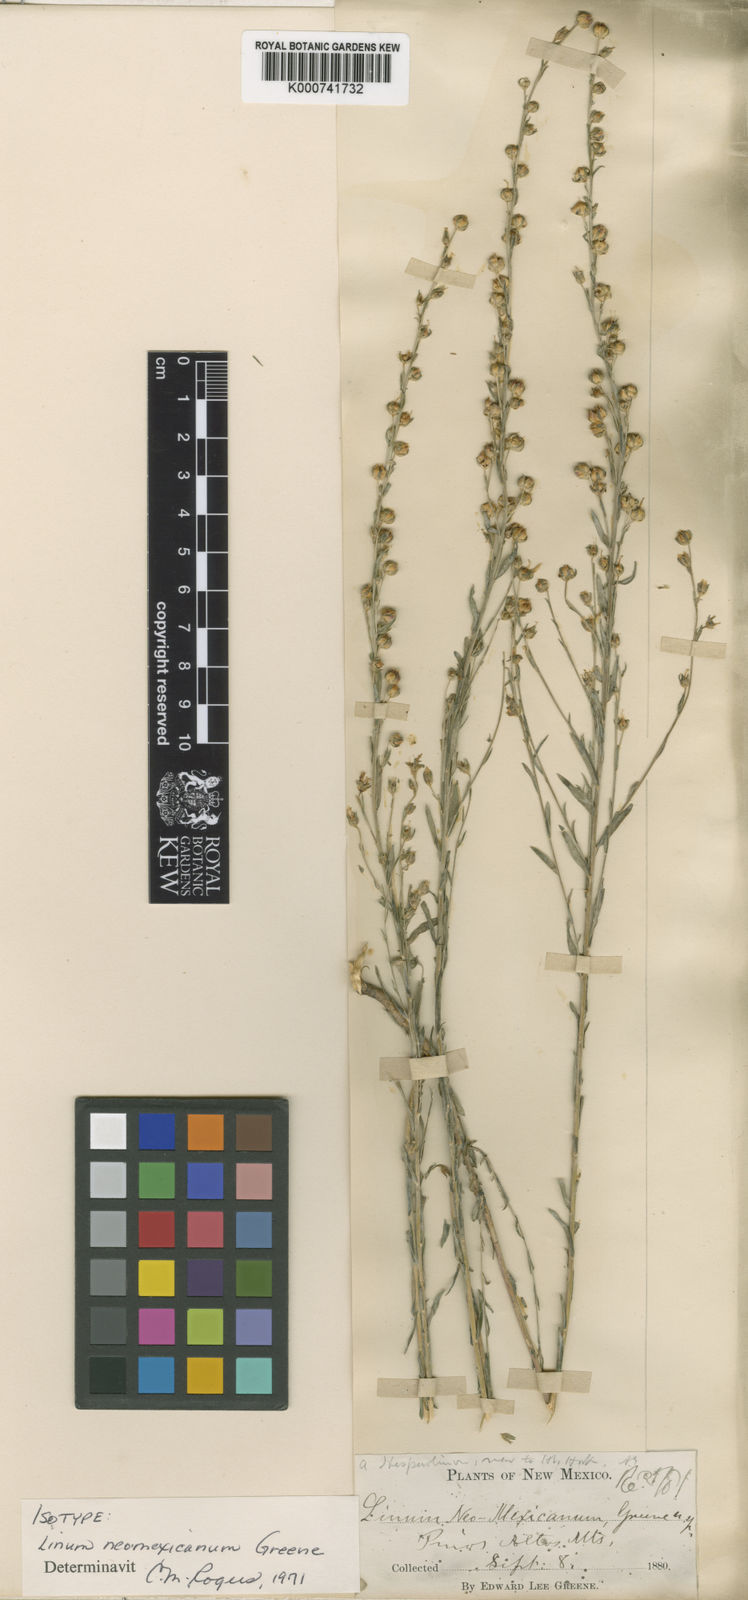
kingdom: Plantae
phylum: Tracheophyta
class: Magnoliopsida
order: Malpighiales
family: Linaceae
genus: Linum
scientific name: Linum neomexicanum
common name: New mexico yellow flax
